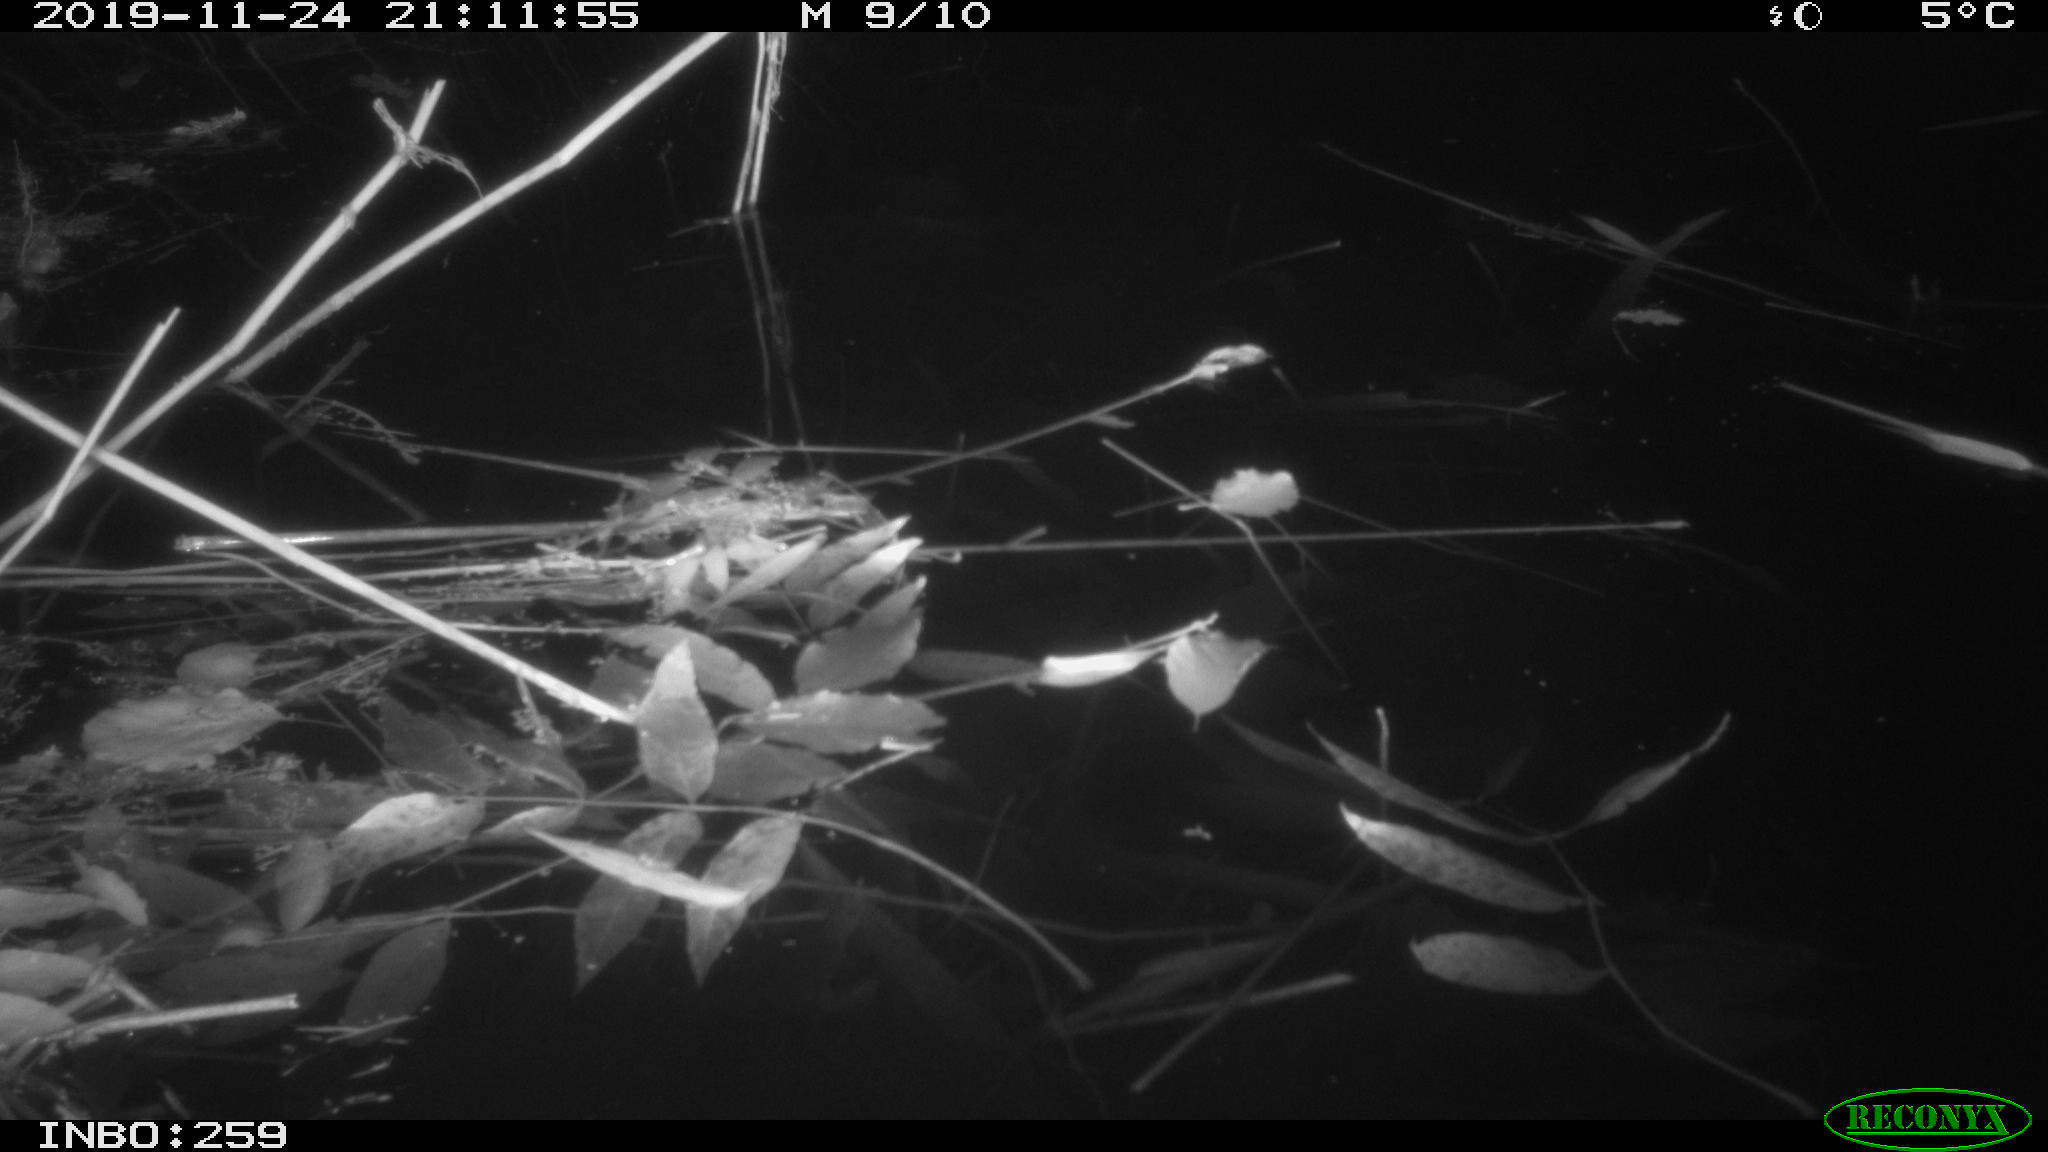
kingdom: Animalia
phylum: Chordata
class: Mammalia
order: Rodentia
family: Muridae
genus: Rattus
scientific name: Rattus norvegicus
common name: Brown rat
